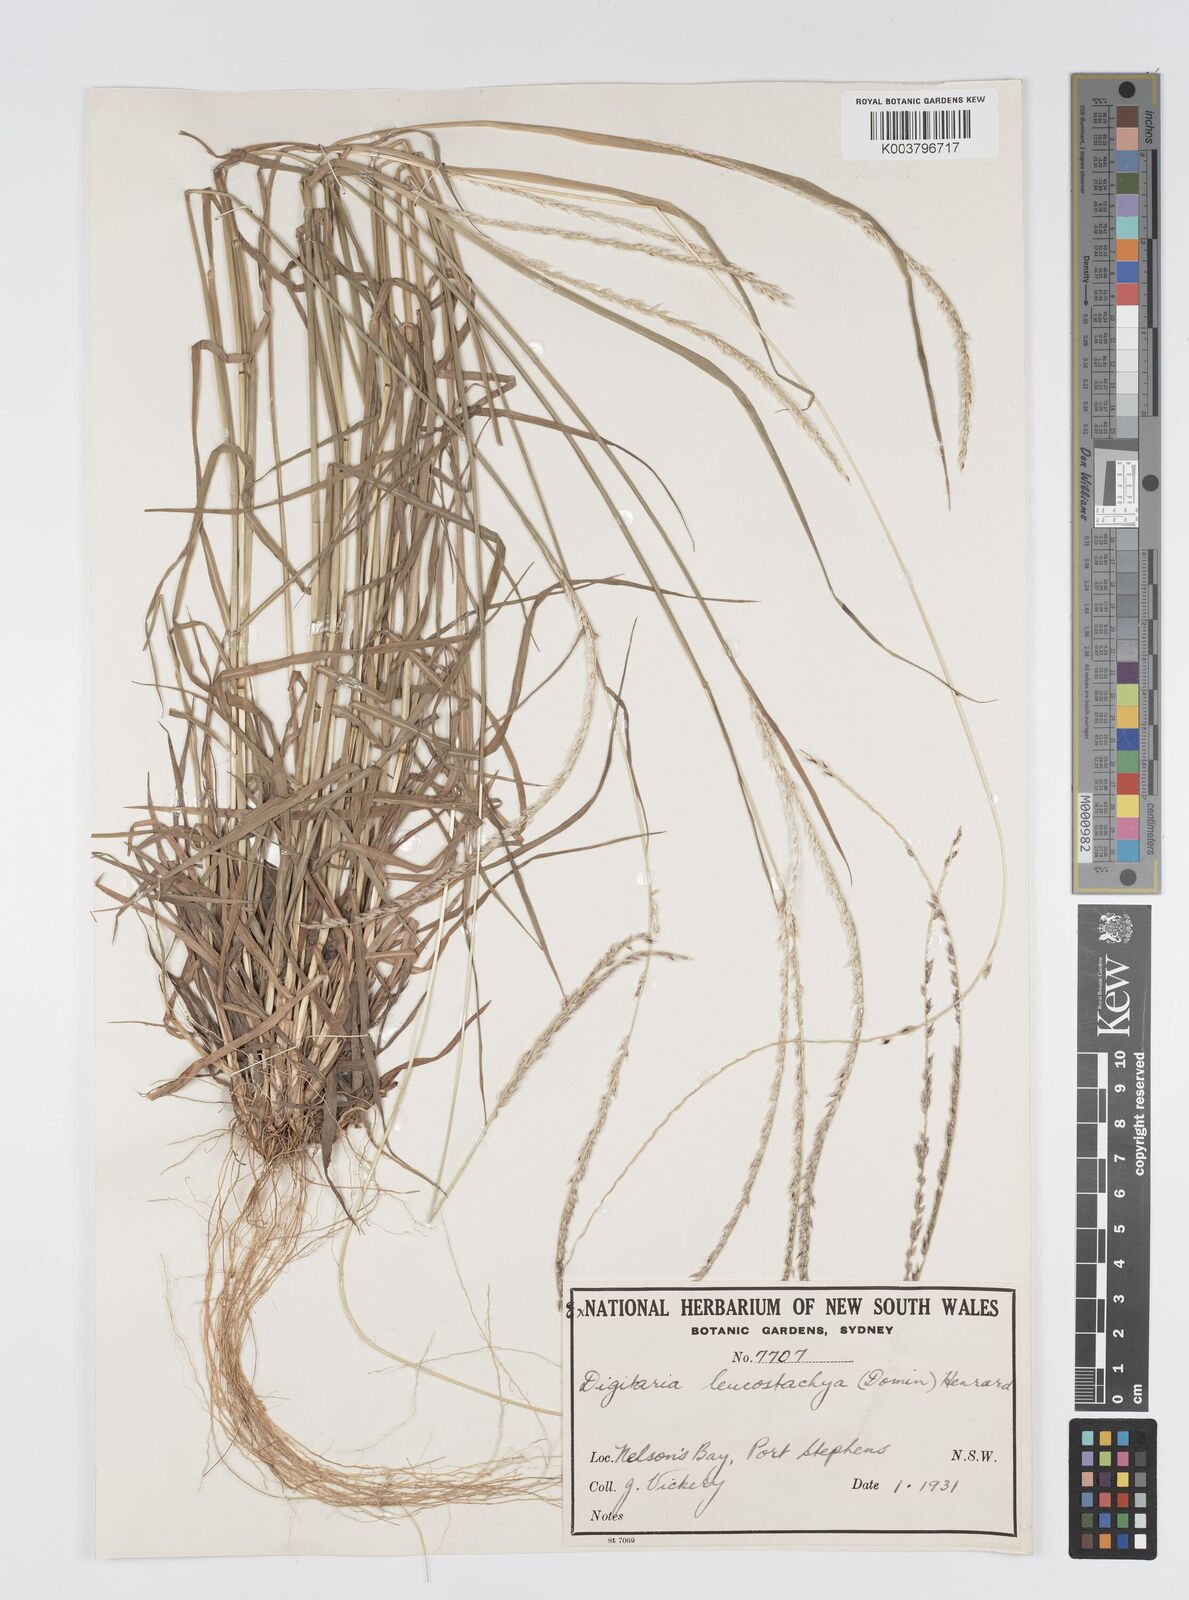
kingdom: Plantae
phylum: Tracheophyta
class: Liliopsida
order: Poales
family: Poaceae
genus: Digitaria
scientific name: Digitaria leucostachya
